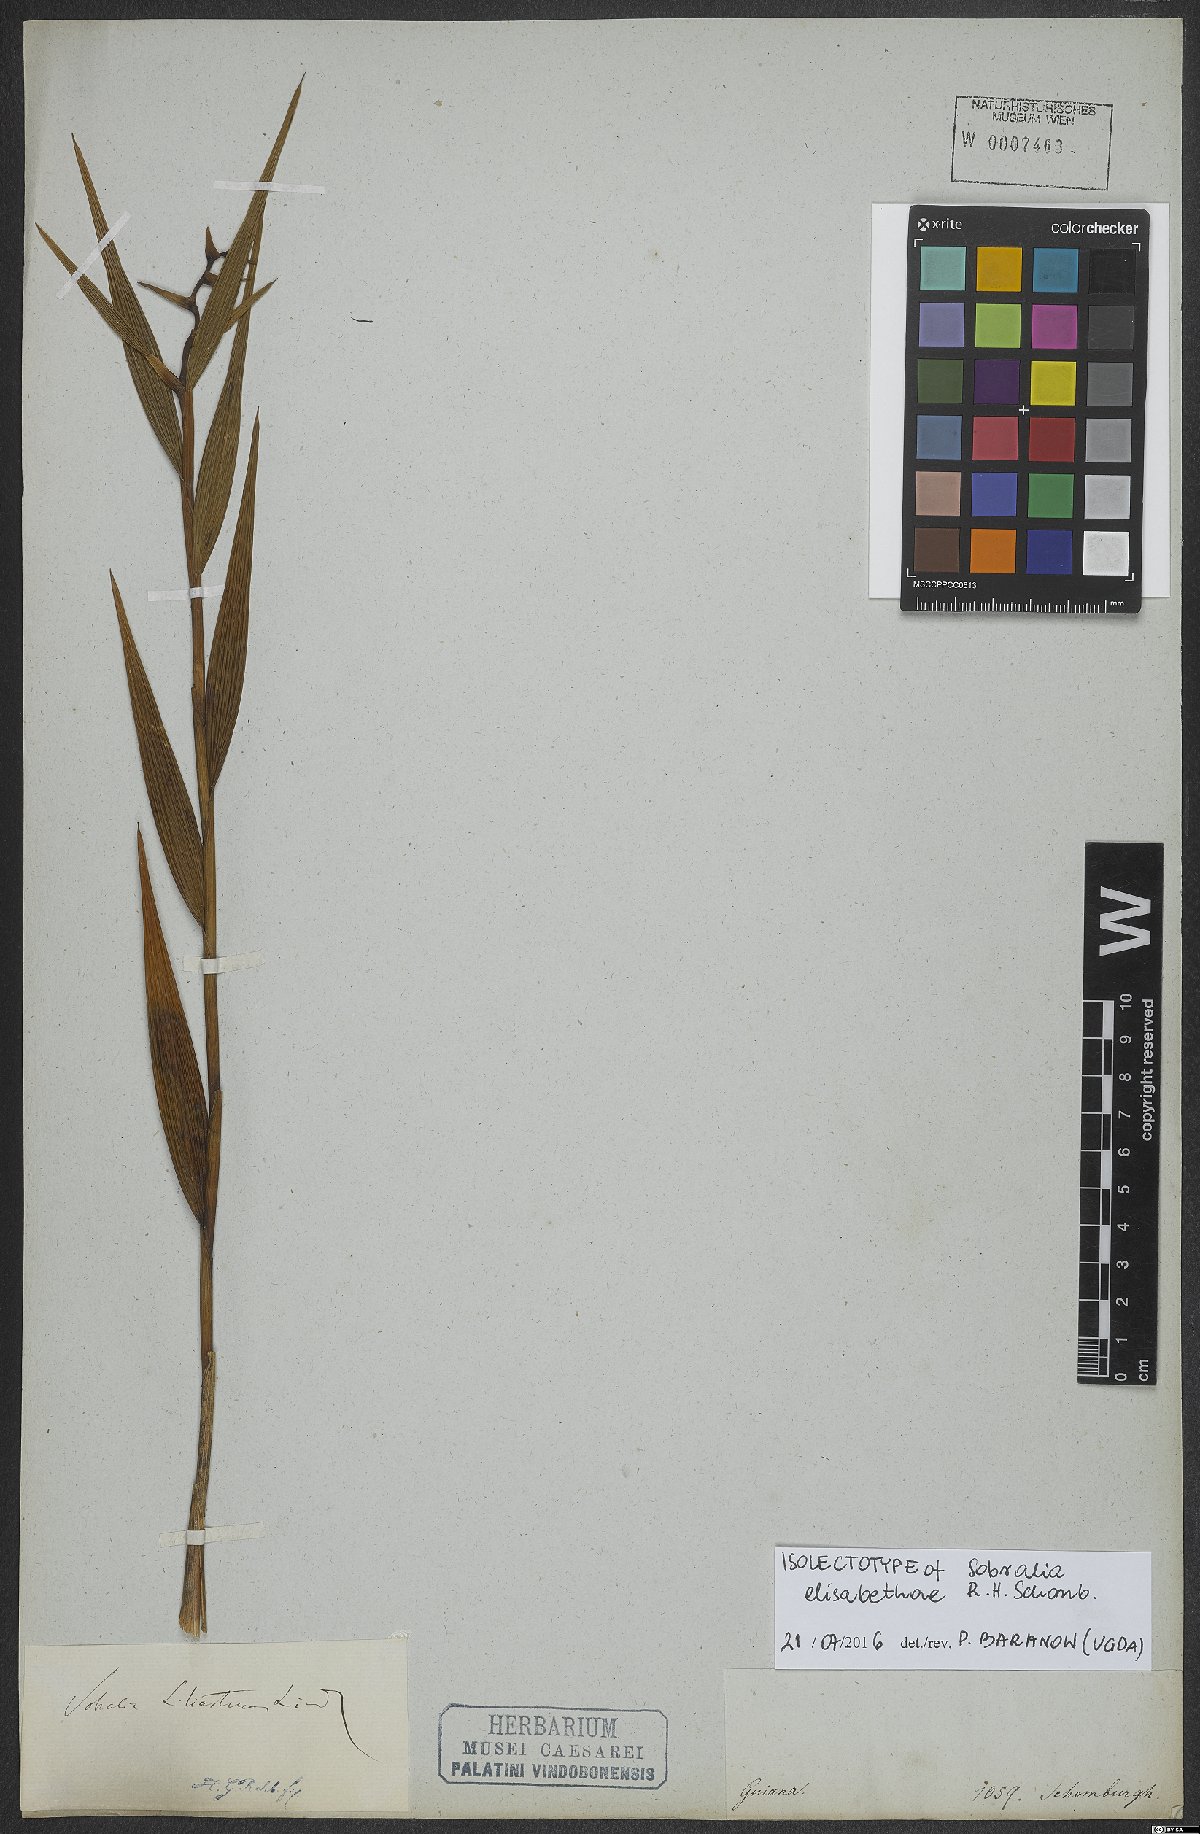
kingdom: Plantae
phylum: Tracheophyta
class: Liliopsida
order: Asparagales
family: Orchidaceae
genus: Sobralia
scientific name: Sobralia liliastrum
